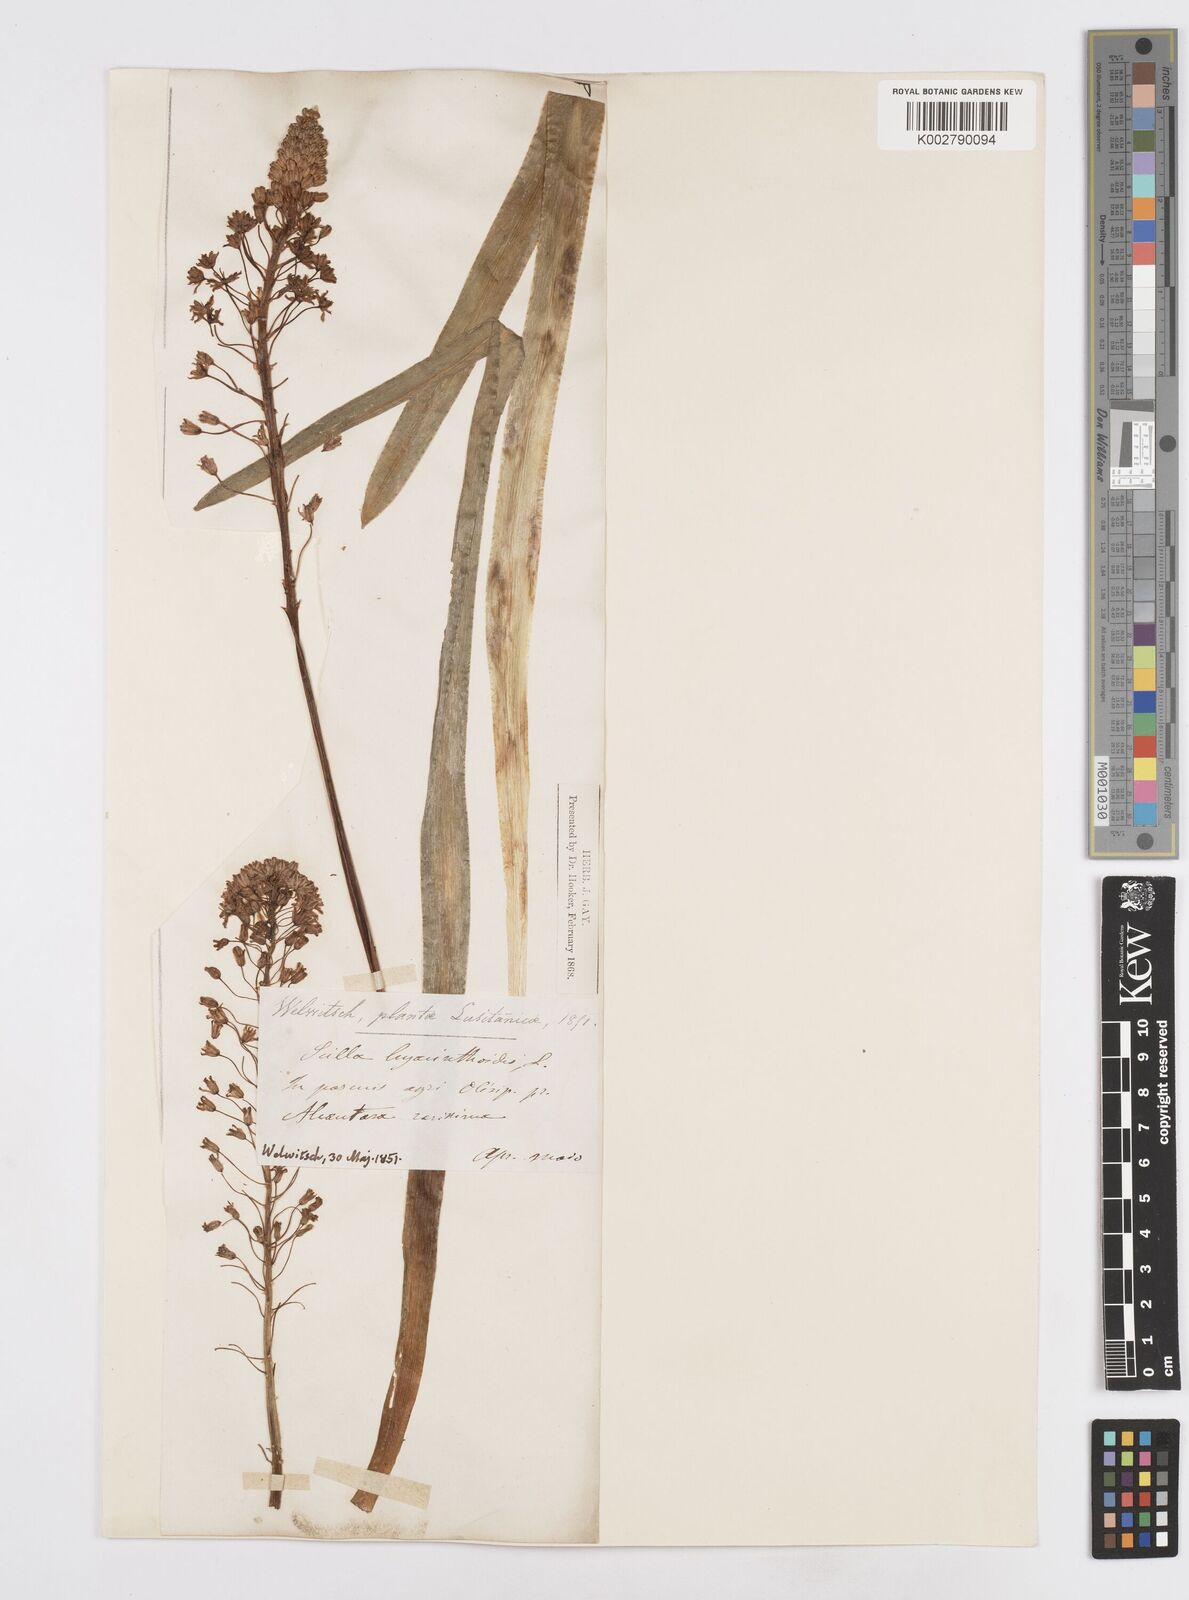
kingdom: Plantae
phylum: Tracheophyta
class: Liliopsida
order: Asparagales
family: Asparagaceae
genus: Scilla
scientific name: Scilla hyacinthoides
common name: Scilla
